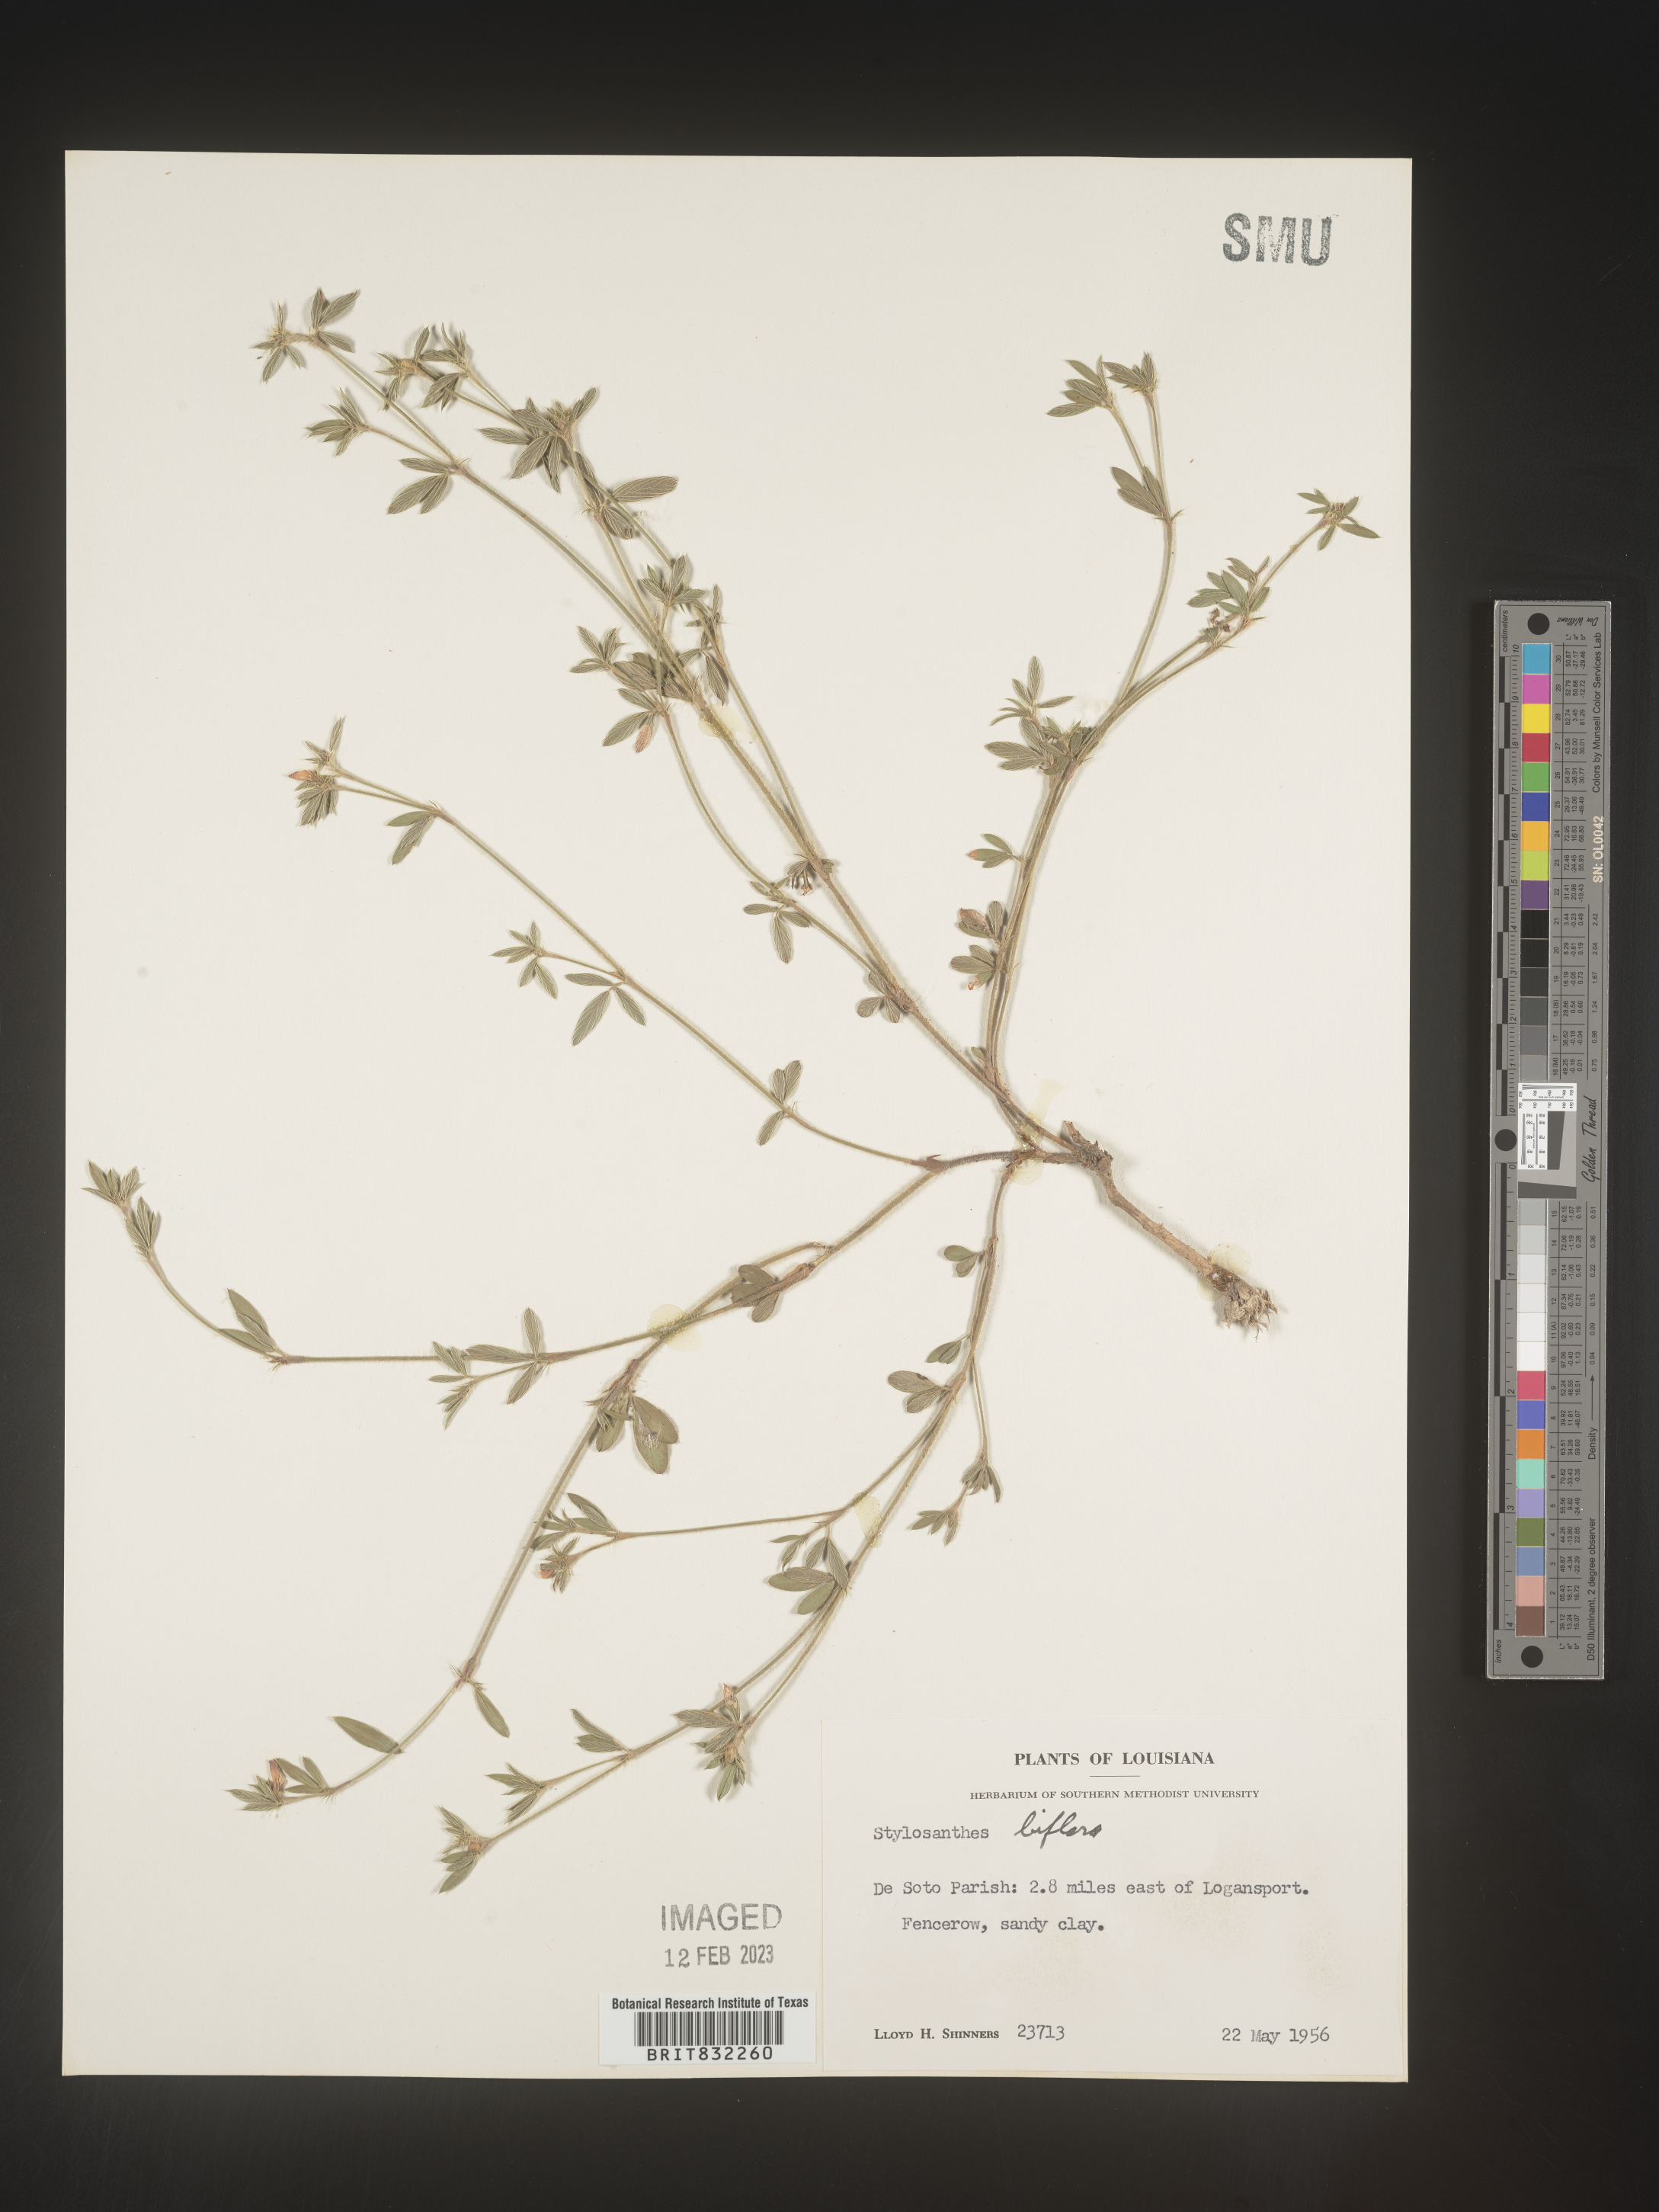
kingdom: Plantae
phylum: Tracheophyta
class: Magnoliopsida
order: Fabales
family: Fabaceae
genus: Stylosanthes
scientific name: Stylosanthes biflora
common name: Two-flower pencil-flower
